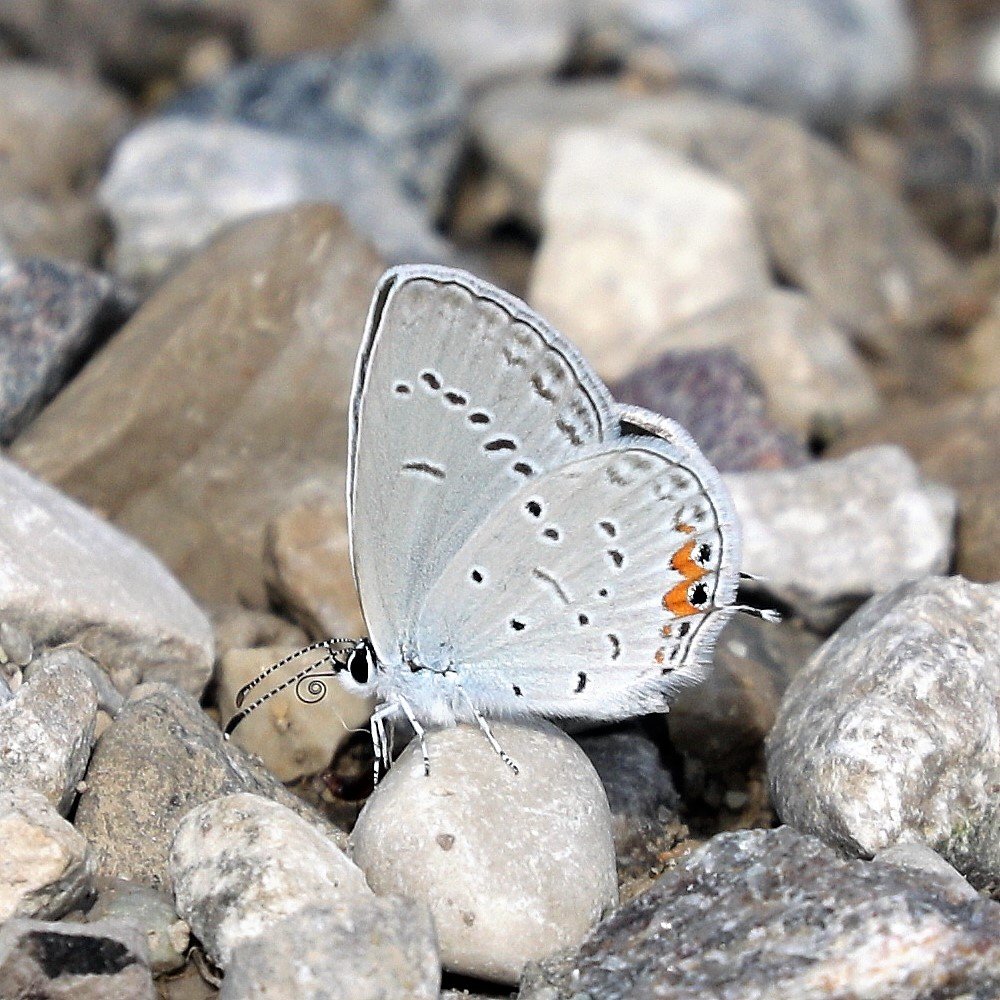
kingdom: Animalia
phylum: Arthropoda
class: Insecta
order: Lepidoptera
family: Lycaenidae
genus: Elkalyce
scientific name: Elkalyce comyntas
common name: Eastern Tailed-Blue
